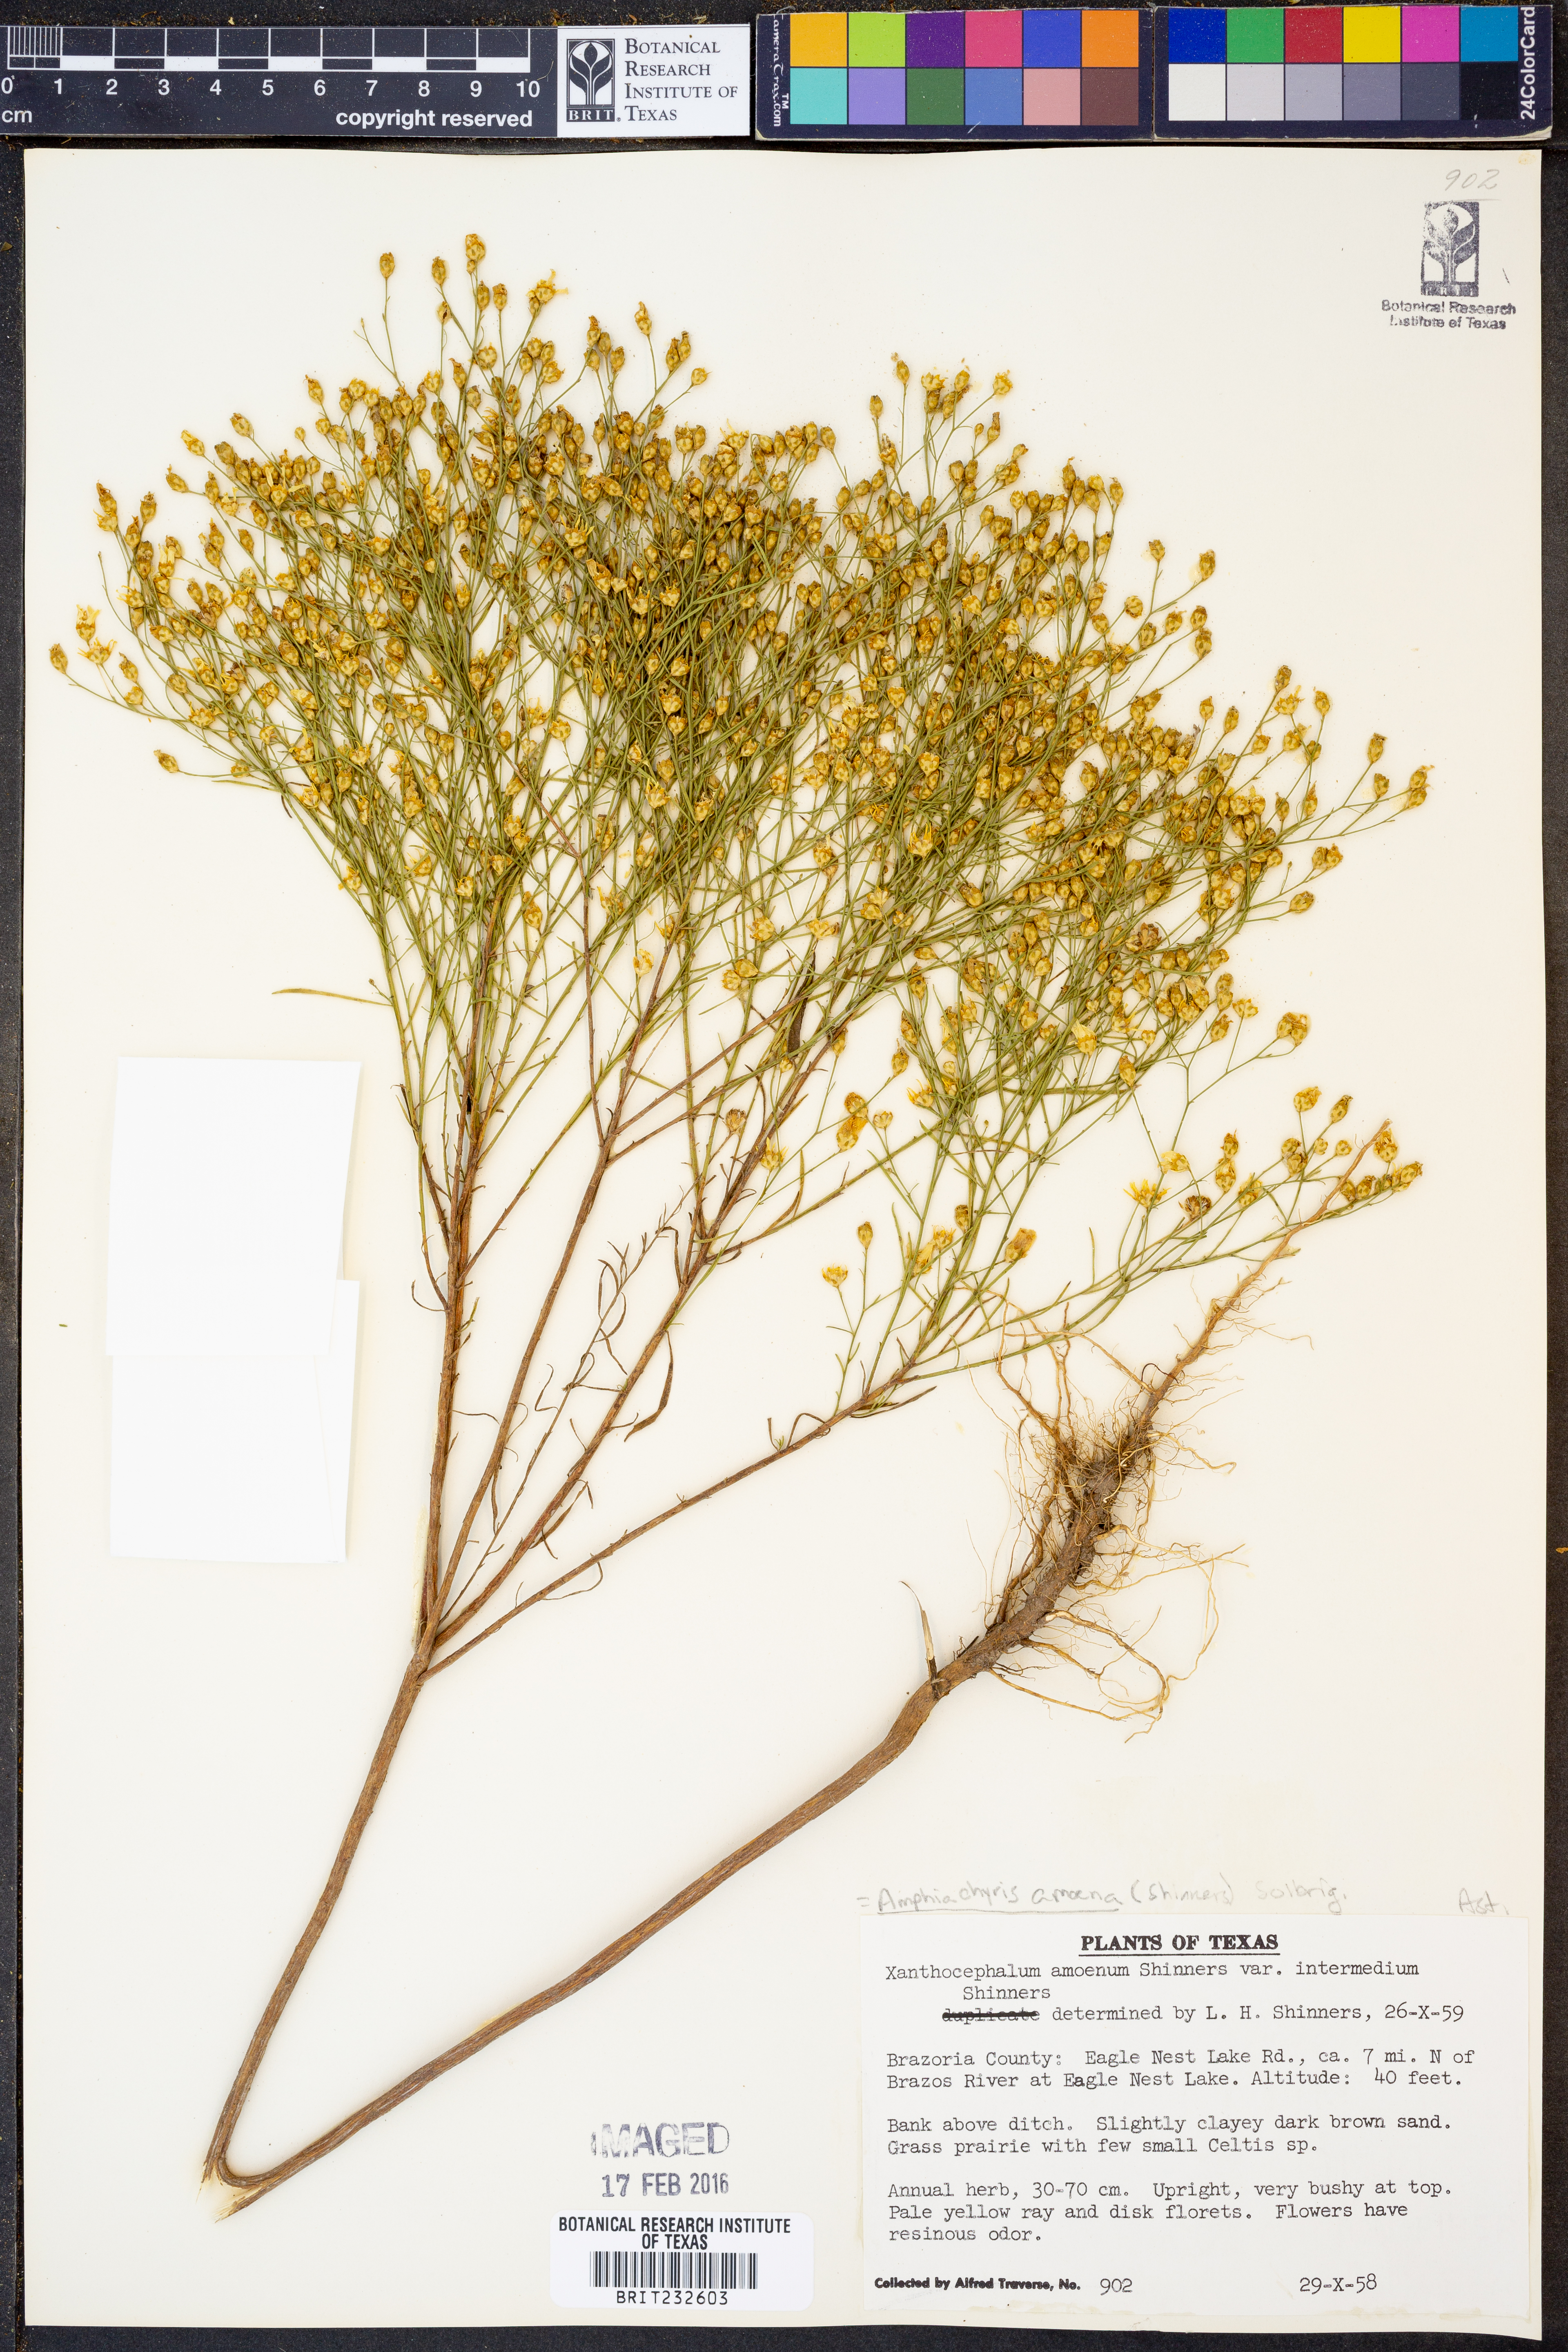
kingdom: Plantae
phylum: Tracheophyta
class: Magnoliopsida
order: Asterales
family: Asteraceae
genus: Amphiachyris
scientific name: Amphiachyris amoenum
